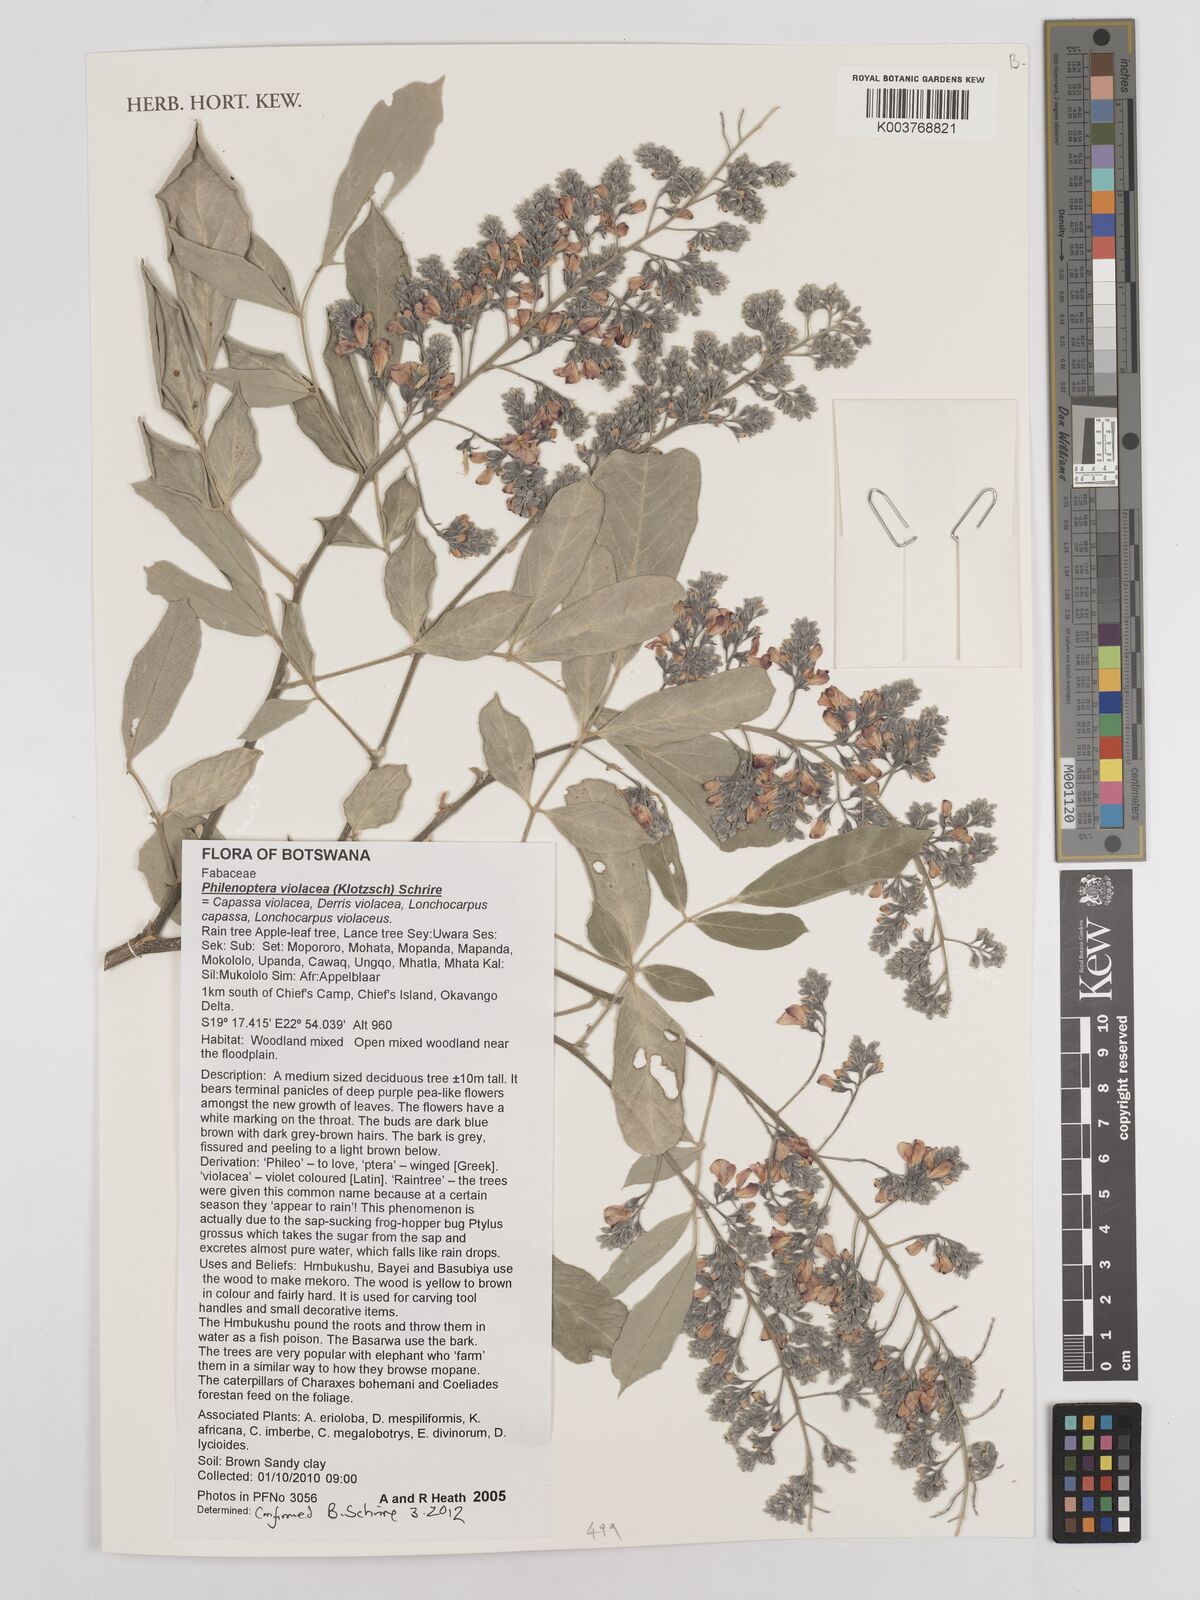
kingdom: Plantae
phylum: Tracheophyta
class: Magnoliopsida
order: Fabales
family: Fabaceae
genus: Philenoptera
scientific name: Philenoptera violacea
